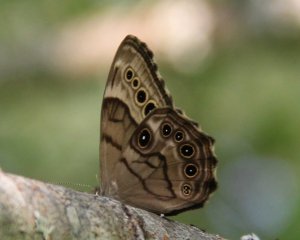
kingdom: Animalia
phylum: Arthropoda
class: Insecta
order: Lepidoptera
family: Nymphalidae
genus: Lethe
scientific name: Lethe anthedon
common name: Northern Pearly-Eye
